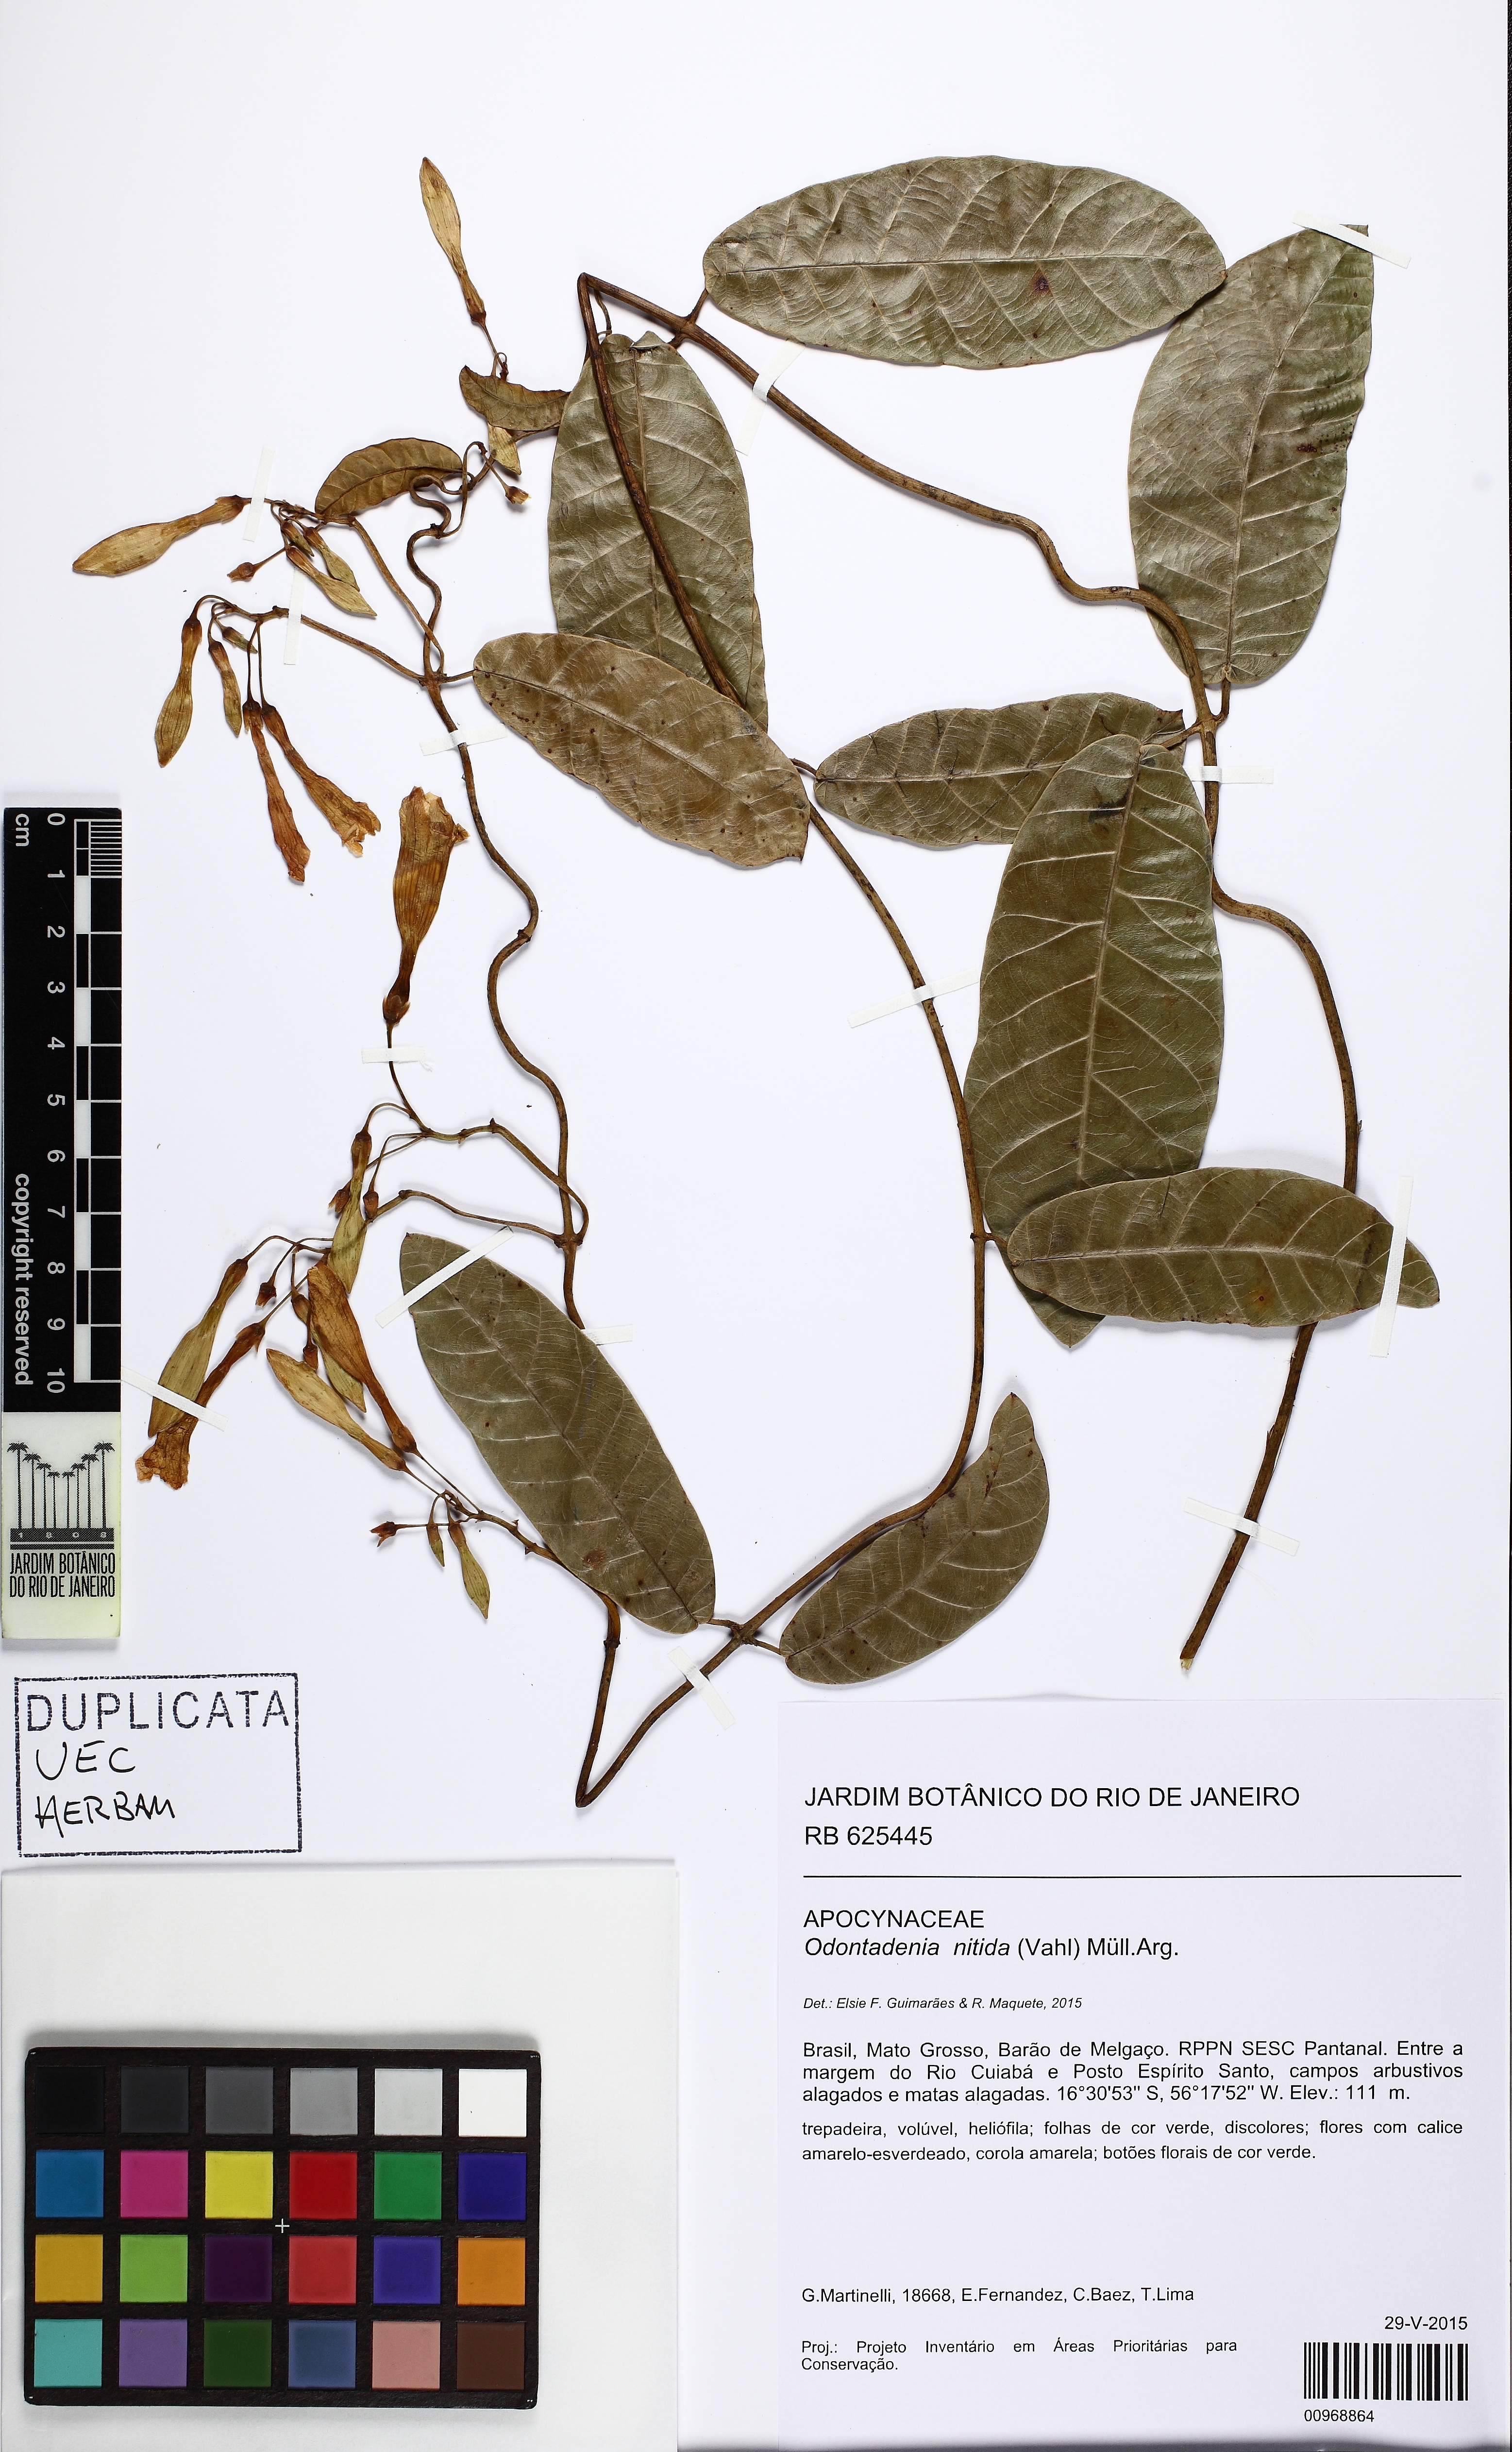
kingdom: Plantae
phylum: Tracheophyta
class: Magnoliopsida
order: Gentianales
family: Apocynaceae
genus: Odontadenia
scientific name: Odontadenia nitida
